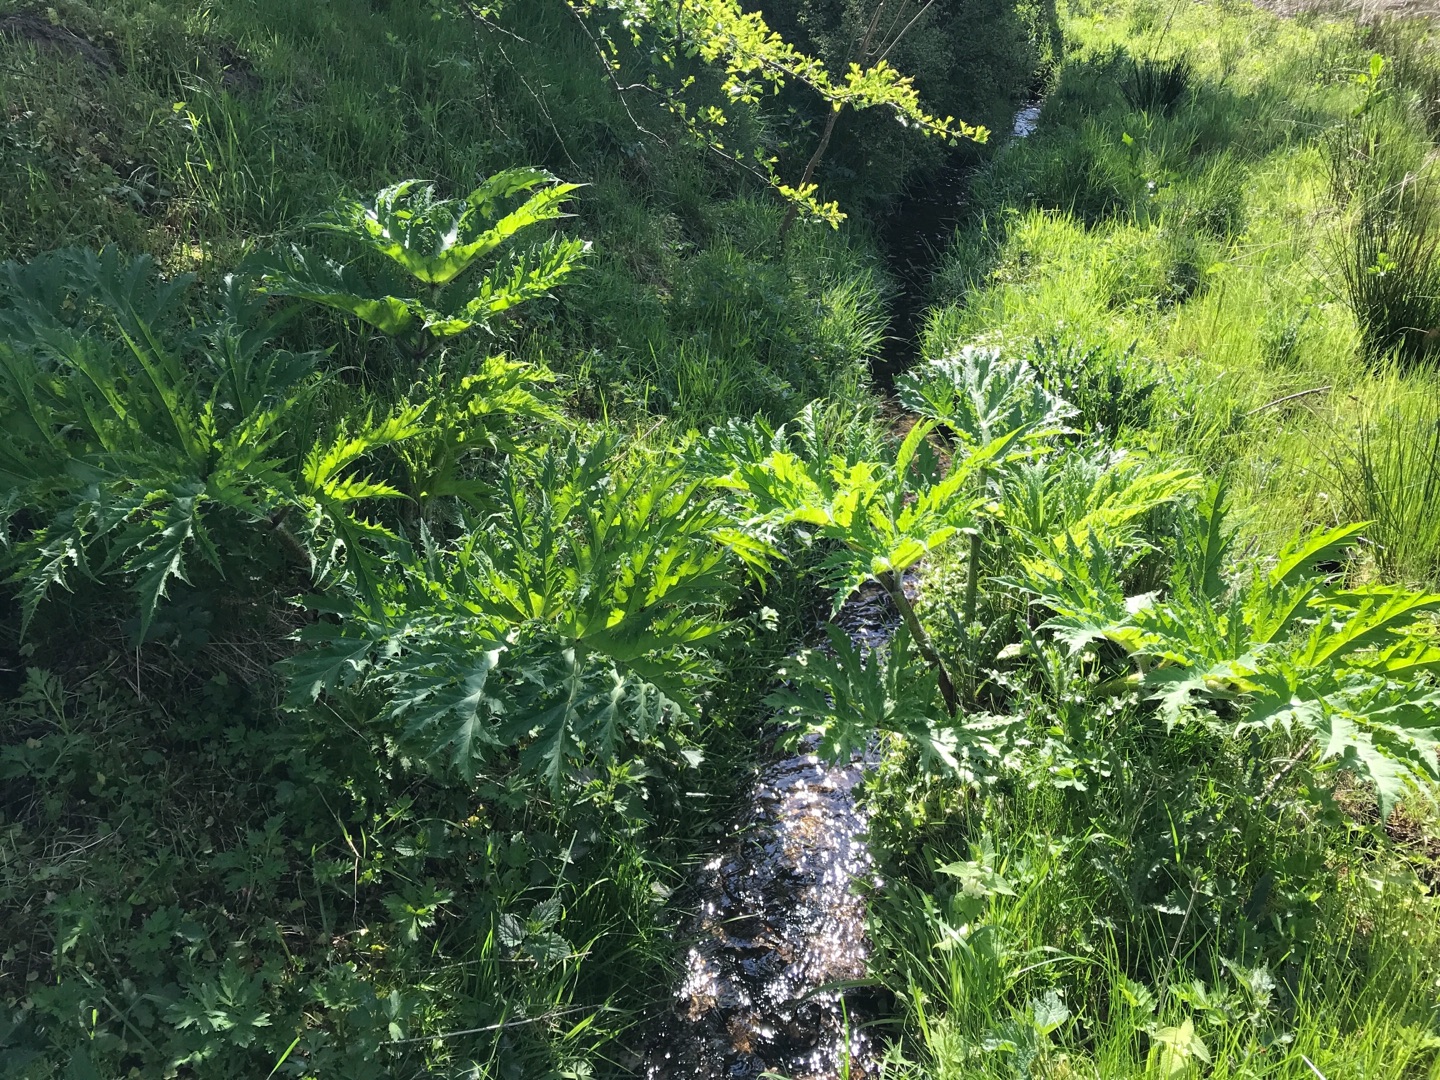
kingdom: Plantae
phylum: Tracheophyta
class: Magnoliopsida
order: Apiales
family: Apiaceae
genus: Heracleum
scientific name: Heracleum mantegazzianum
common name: Kæmpe-bjørneklo
